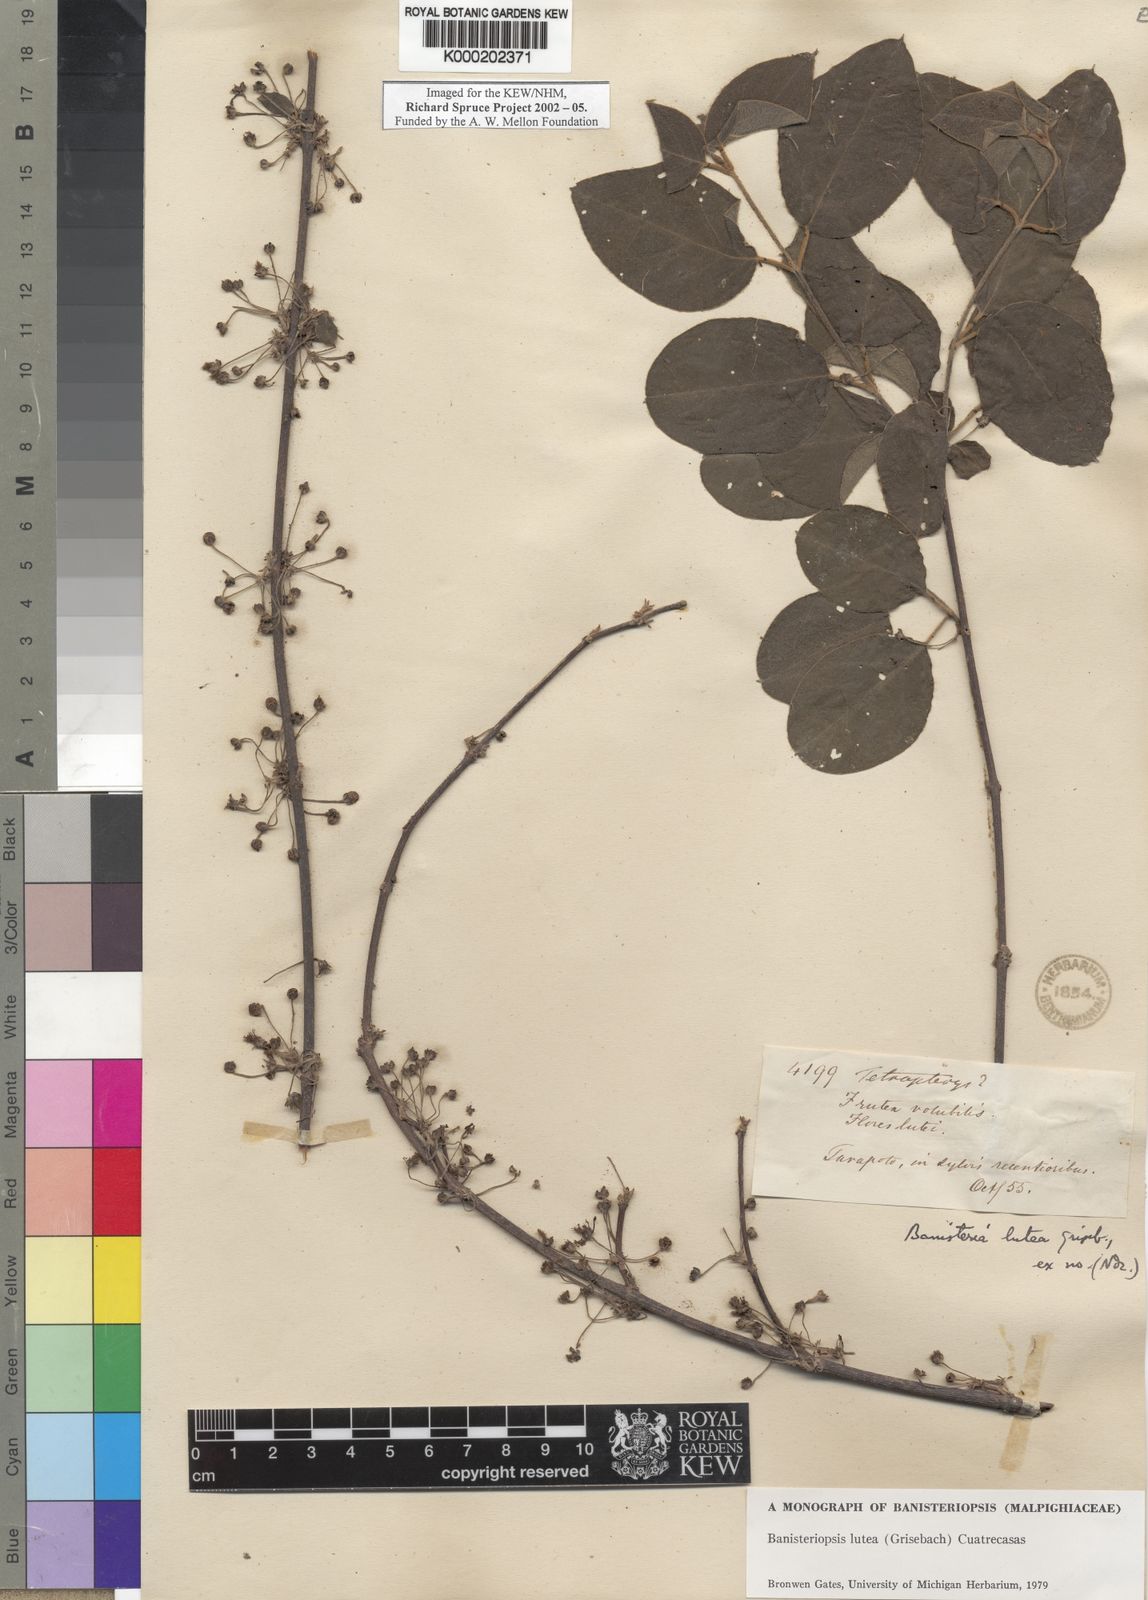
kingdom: Plantae
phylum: Tracheophyta
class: Magnoliopsida
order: Malpighiales
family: Malpighiaceae
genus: Diplopterys
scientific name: Diplopterys lutea
